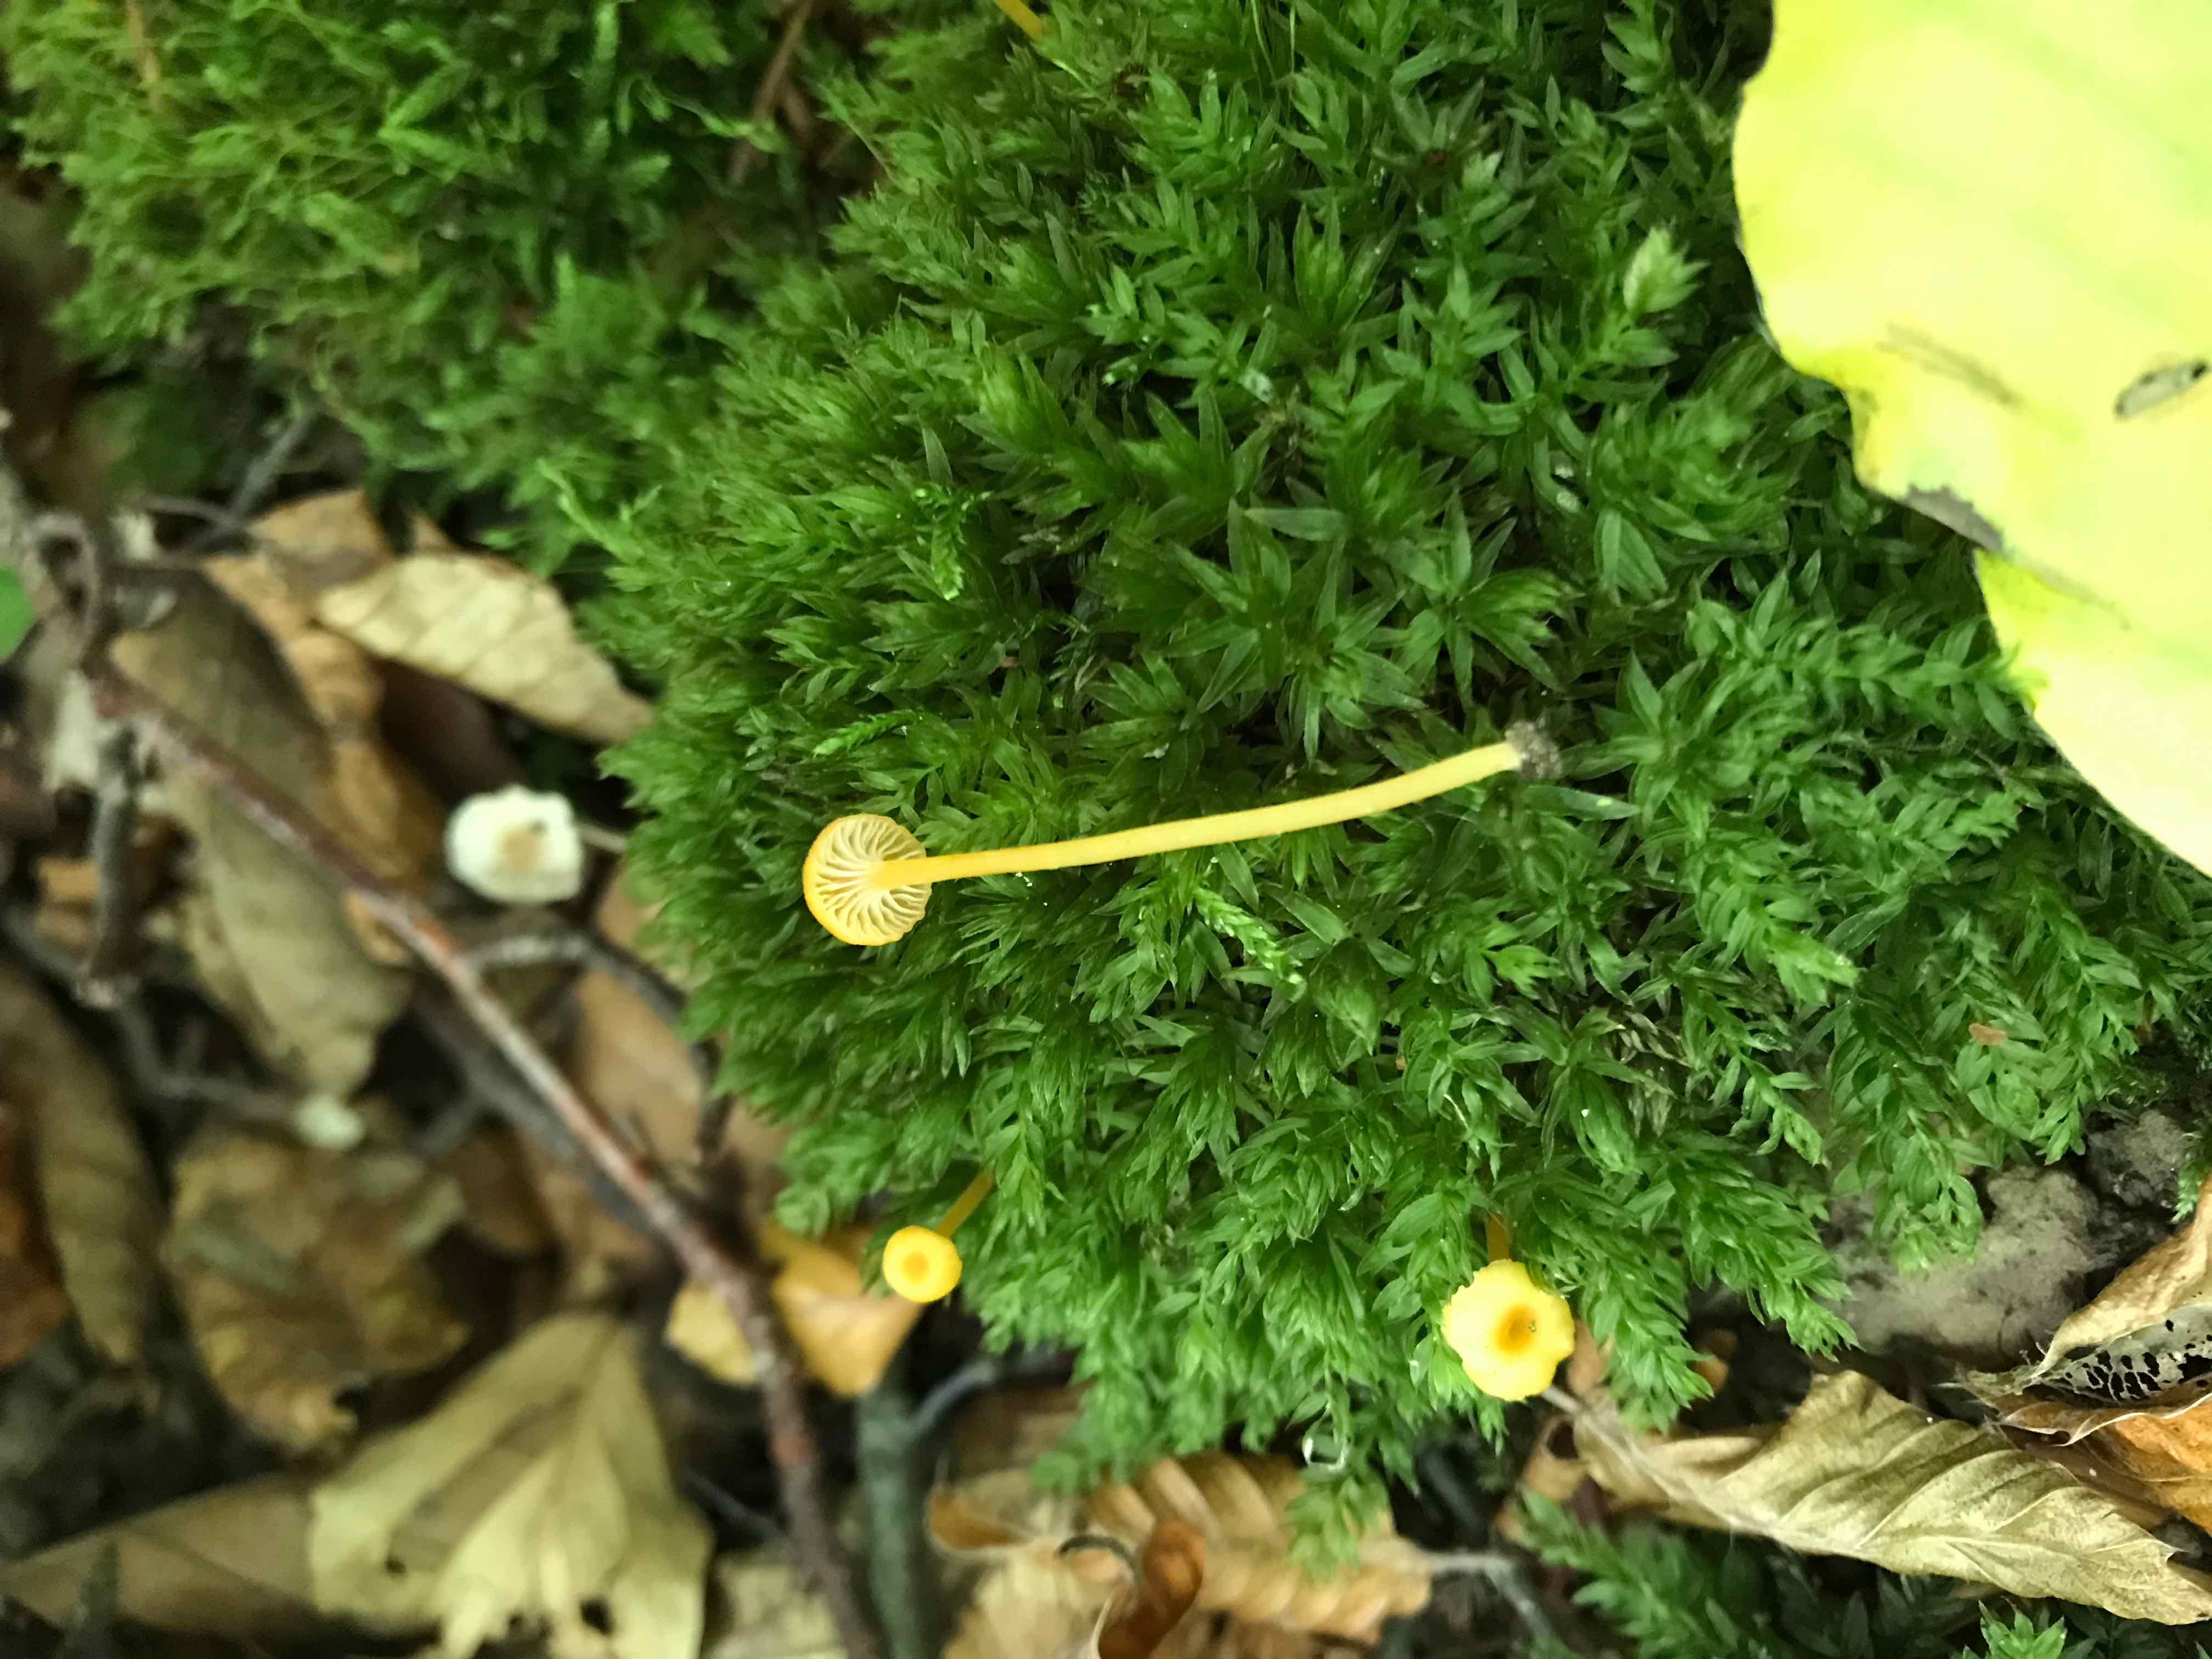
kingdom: Fungi
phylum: Basidiomycota
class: Agaricomycetes
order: Hymenochaetales
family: Rickenellaceae
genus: Rickenella
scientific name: Rickenella fibula
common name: orange mosnavlehat
